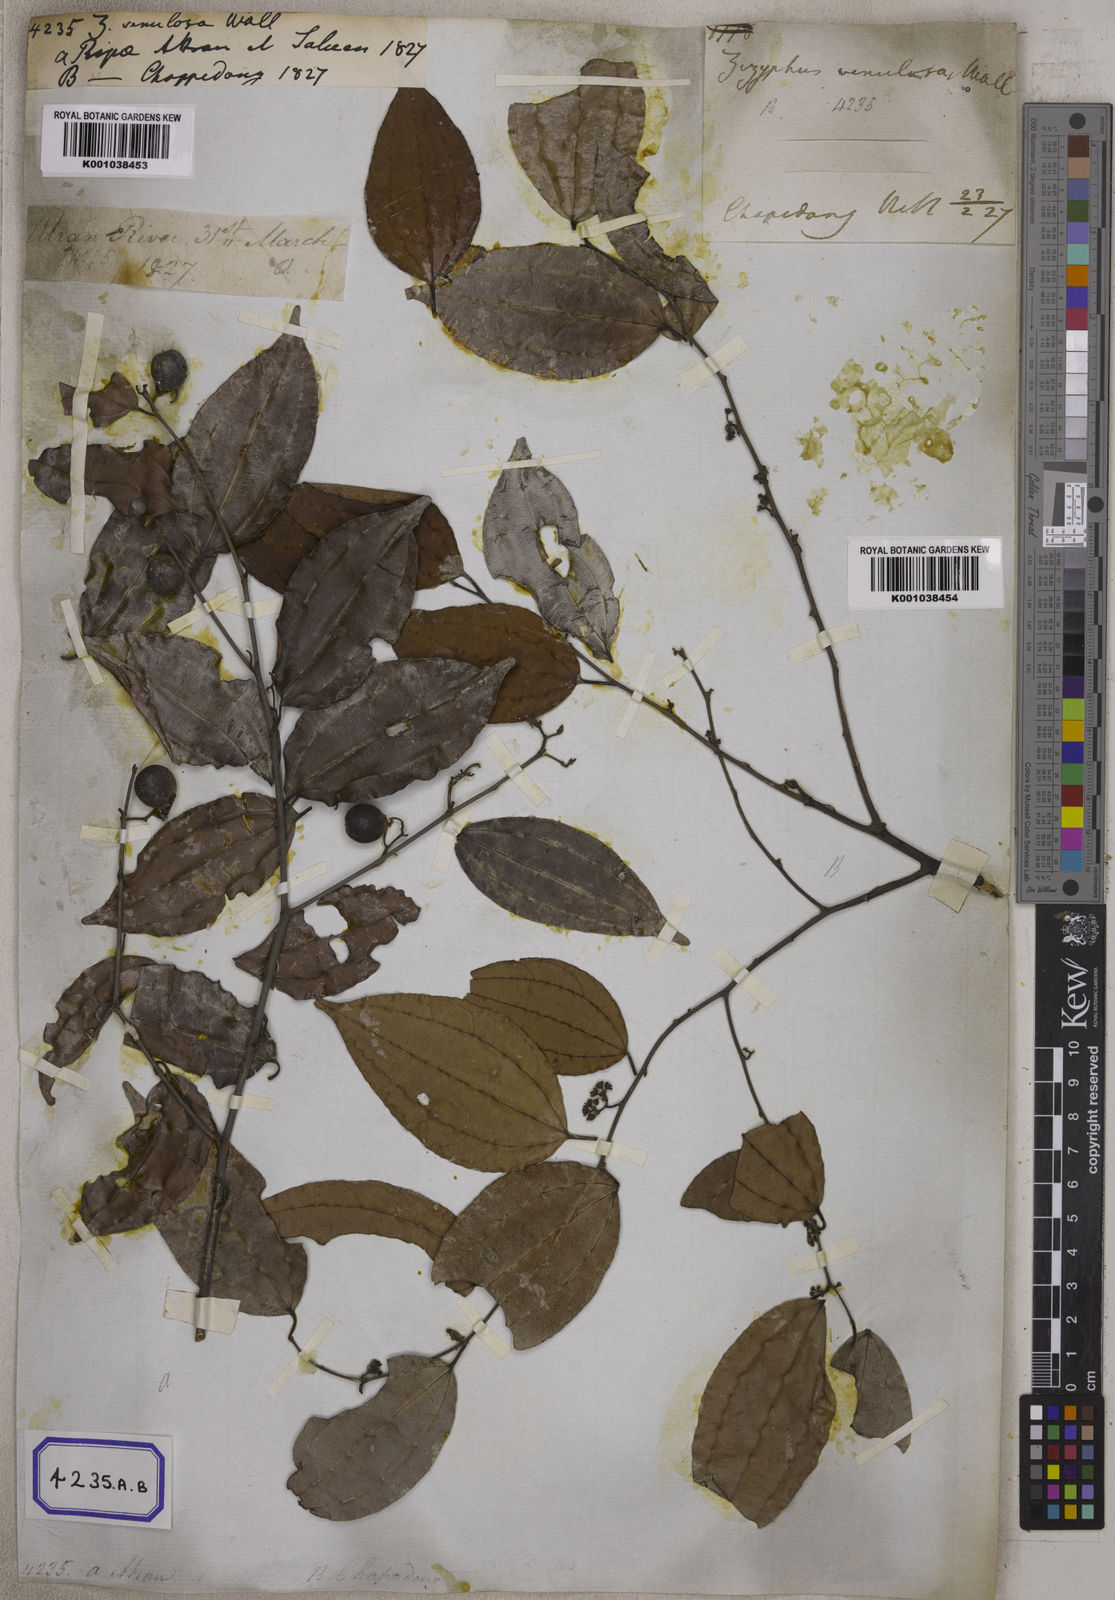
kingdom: Plantae
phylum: Tracheophyta
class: Magnoliopsida
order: Rosales
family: Rhamnaceae
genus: Ziziphus
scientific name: Ziziphus funiculosa
